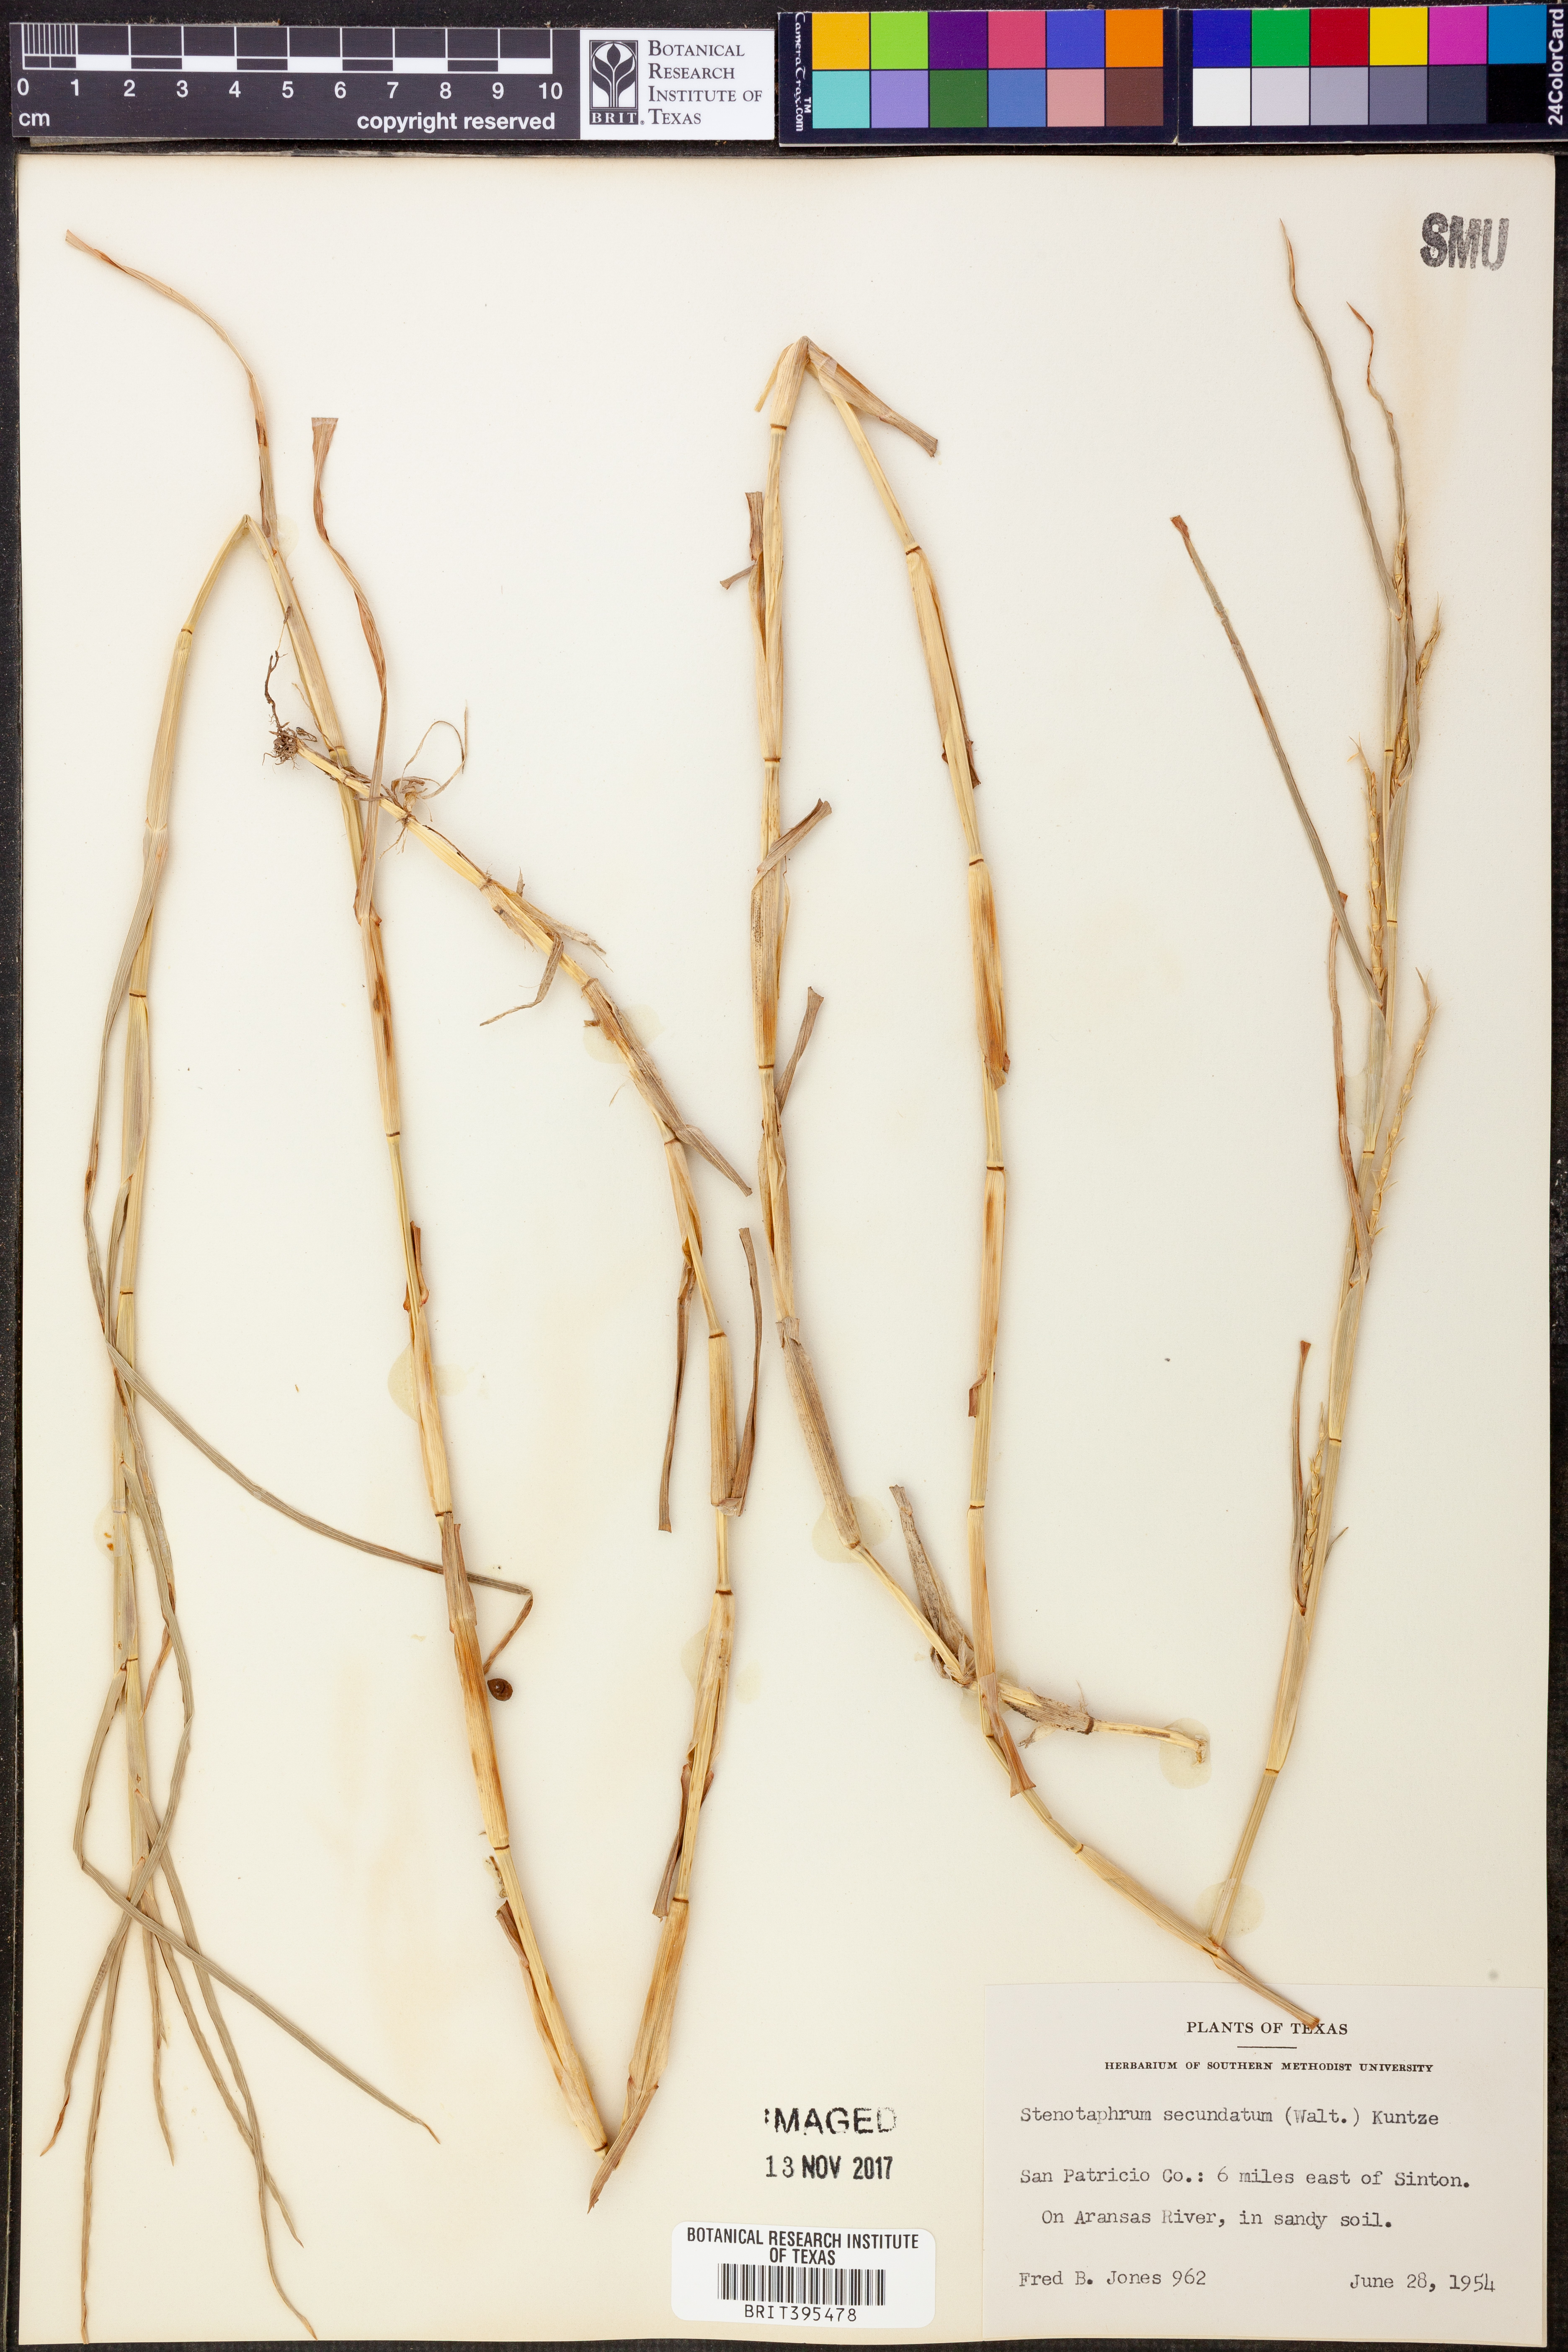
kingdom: Plantae
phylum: Tracheophyta
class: Liliopsida
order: Poales
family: Poaceae
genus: Stenotaphrum
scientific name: Stenotaphrum secundatum
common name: St. augustine grass
